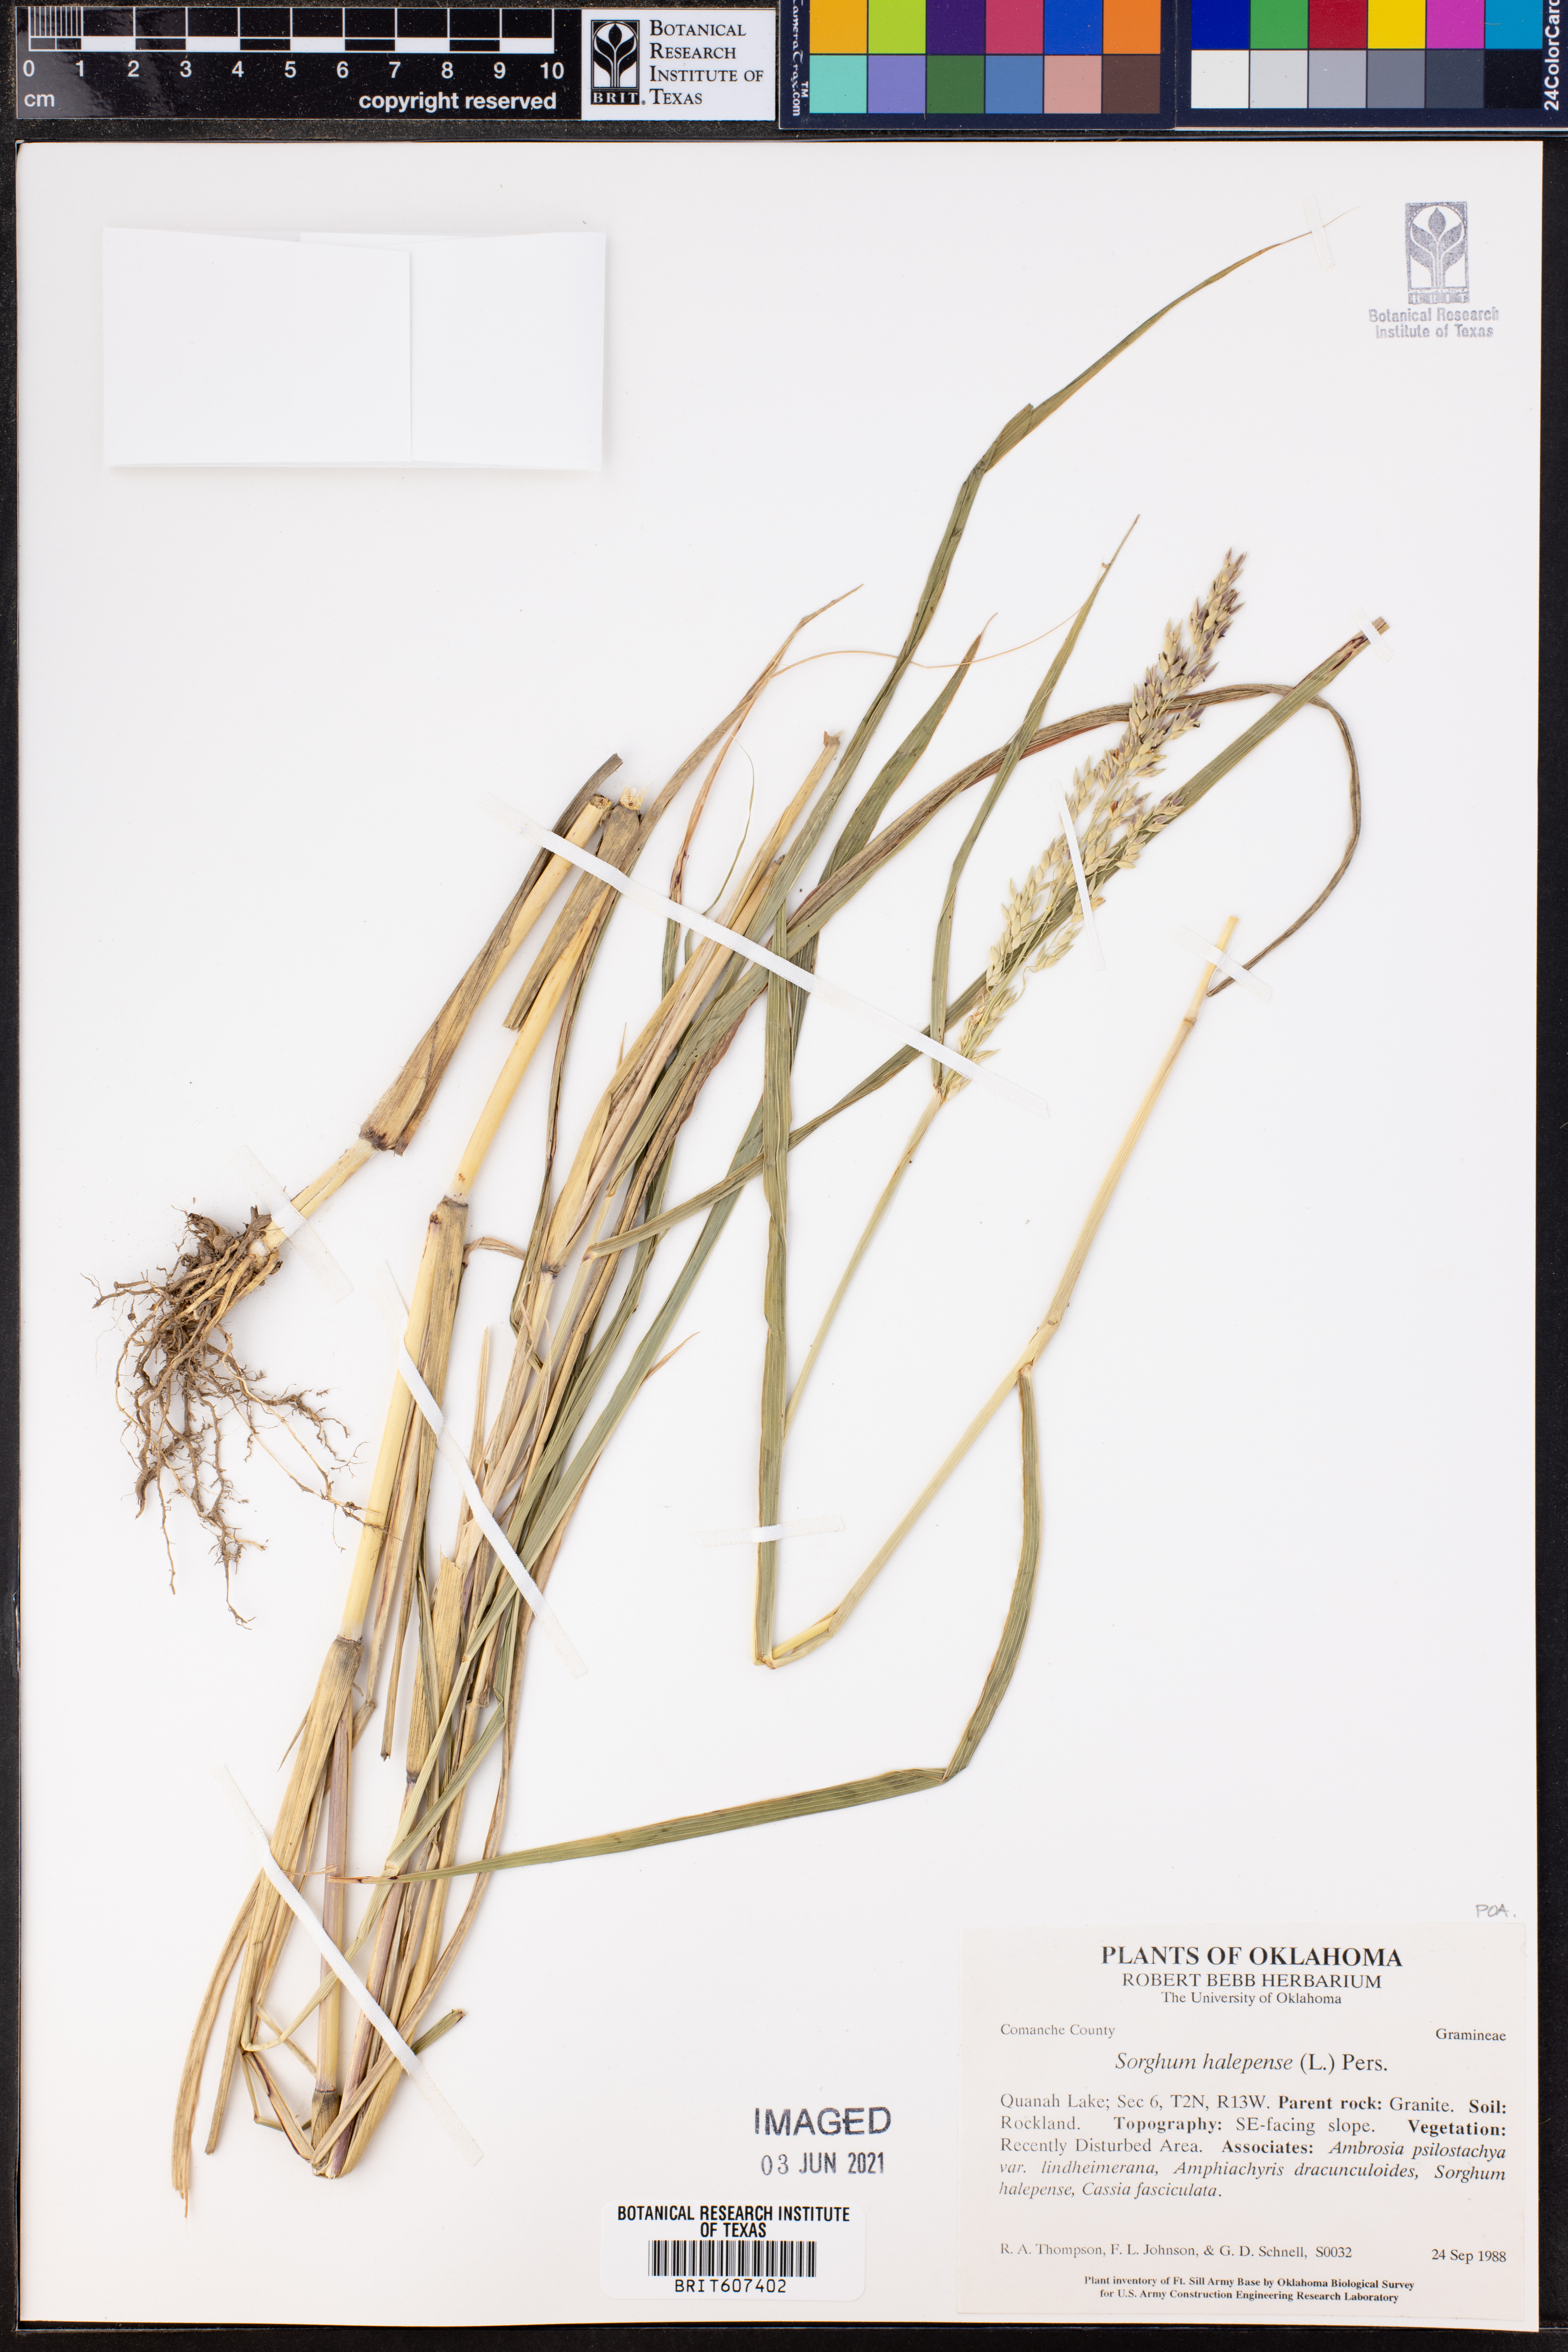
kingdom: Plantae
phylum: Tracheophyta
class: Liliopsida
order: Poales
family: Poaceae
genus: Sorghum
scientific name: Sorghum halepense
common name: Johnson-grass
